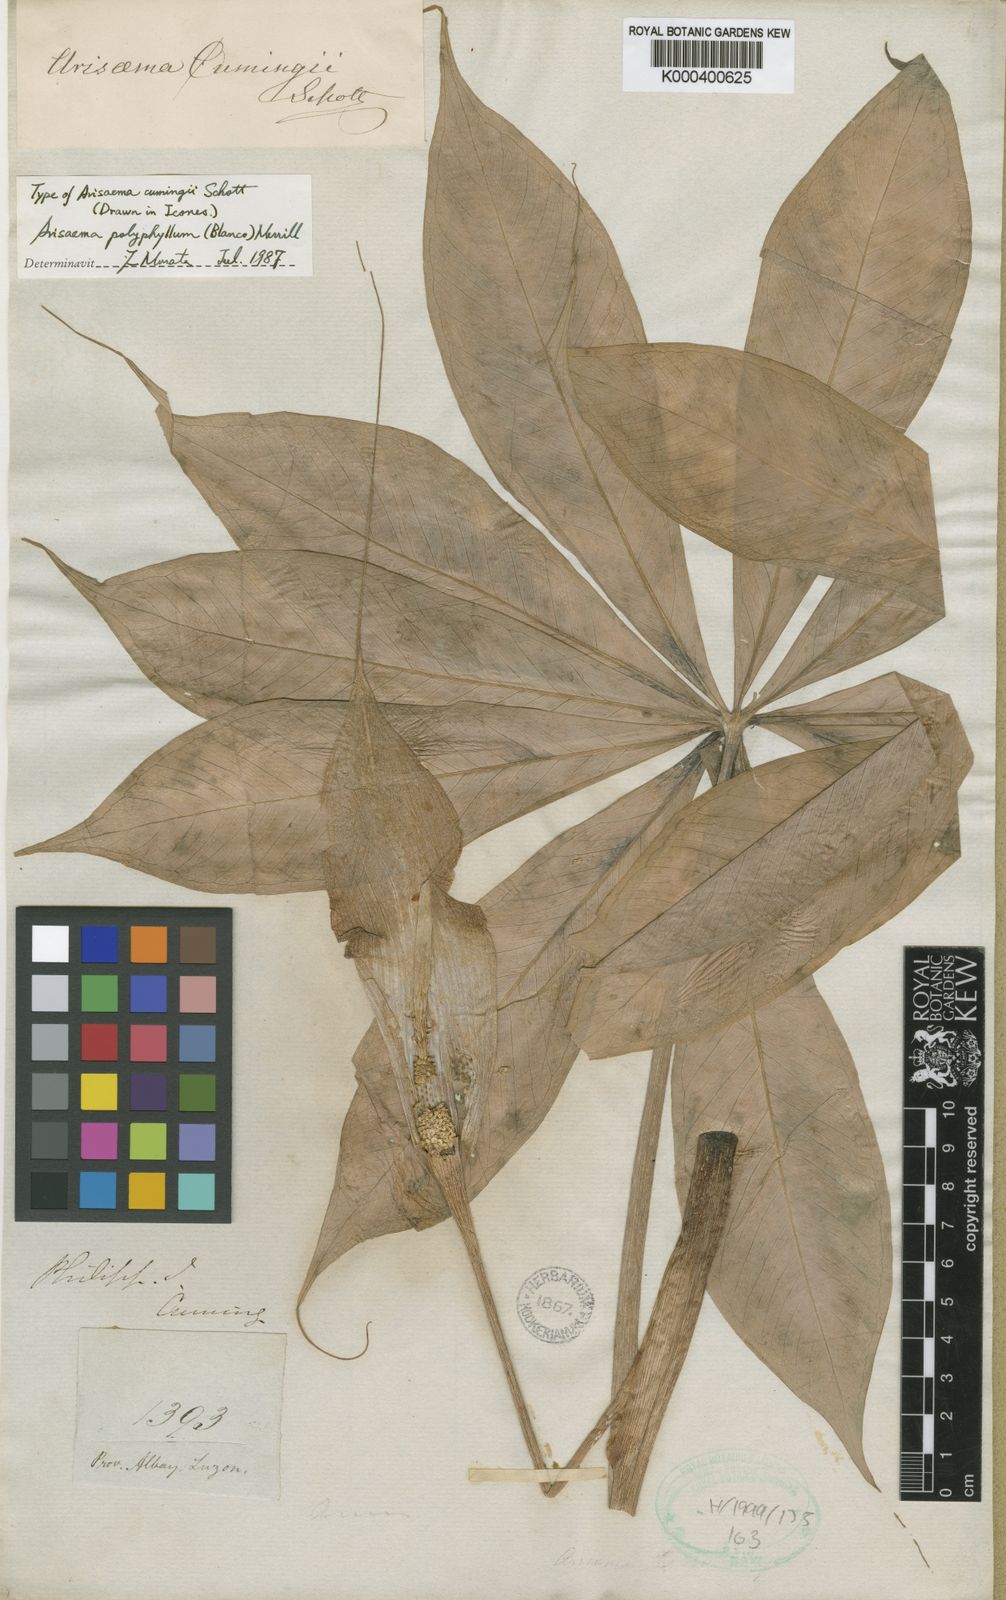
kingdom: Plantae
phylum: Tracheophyta
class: Liliopsida
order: Alismatales
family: Araceae
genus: Arisaema
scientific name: Arisaema polyphyllum
